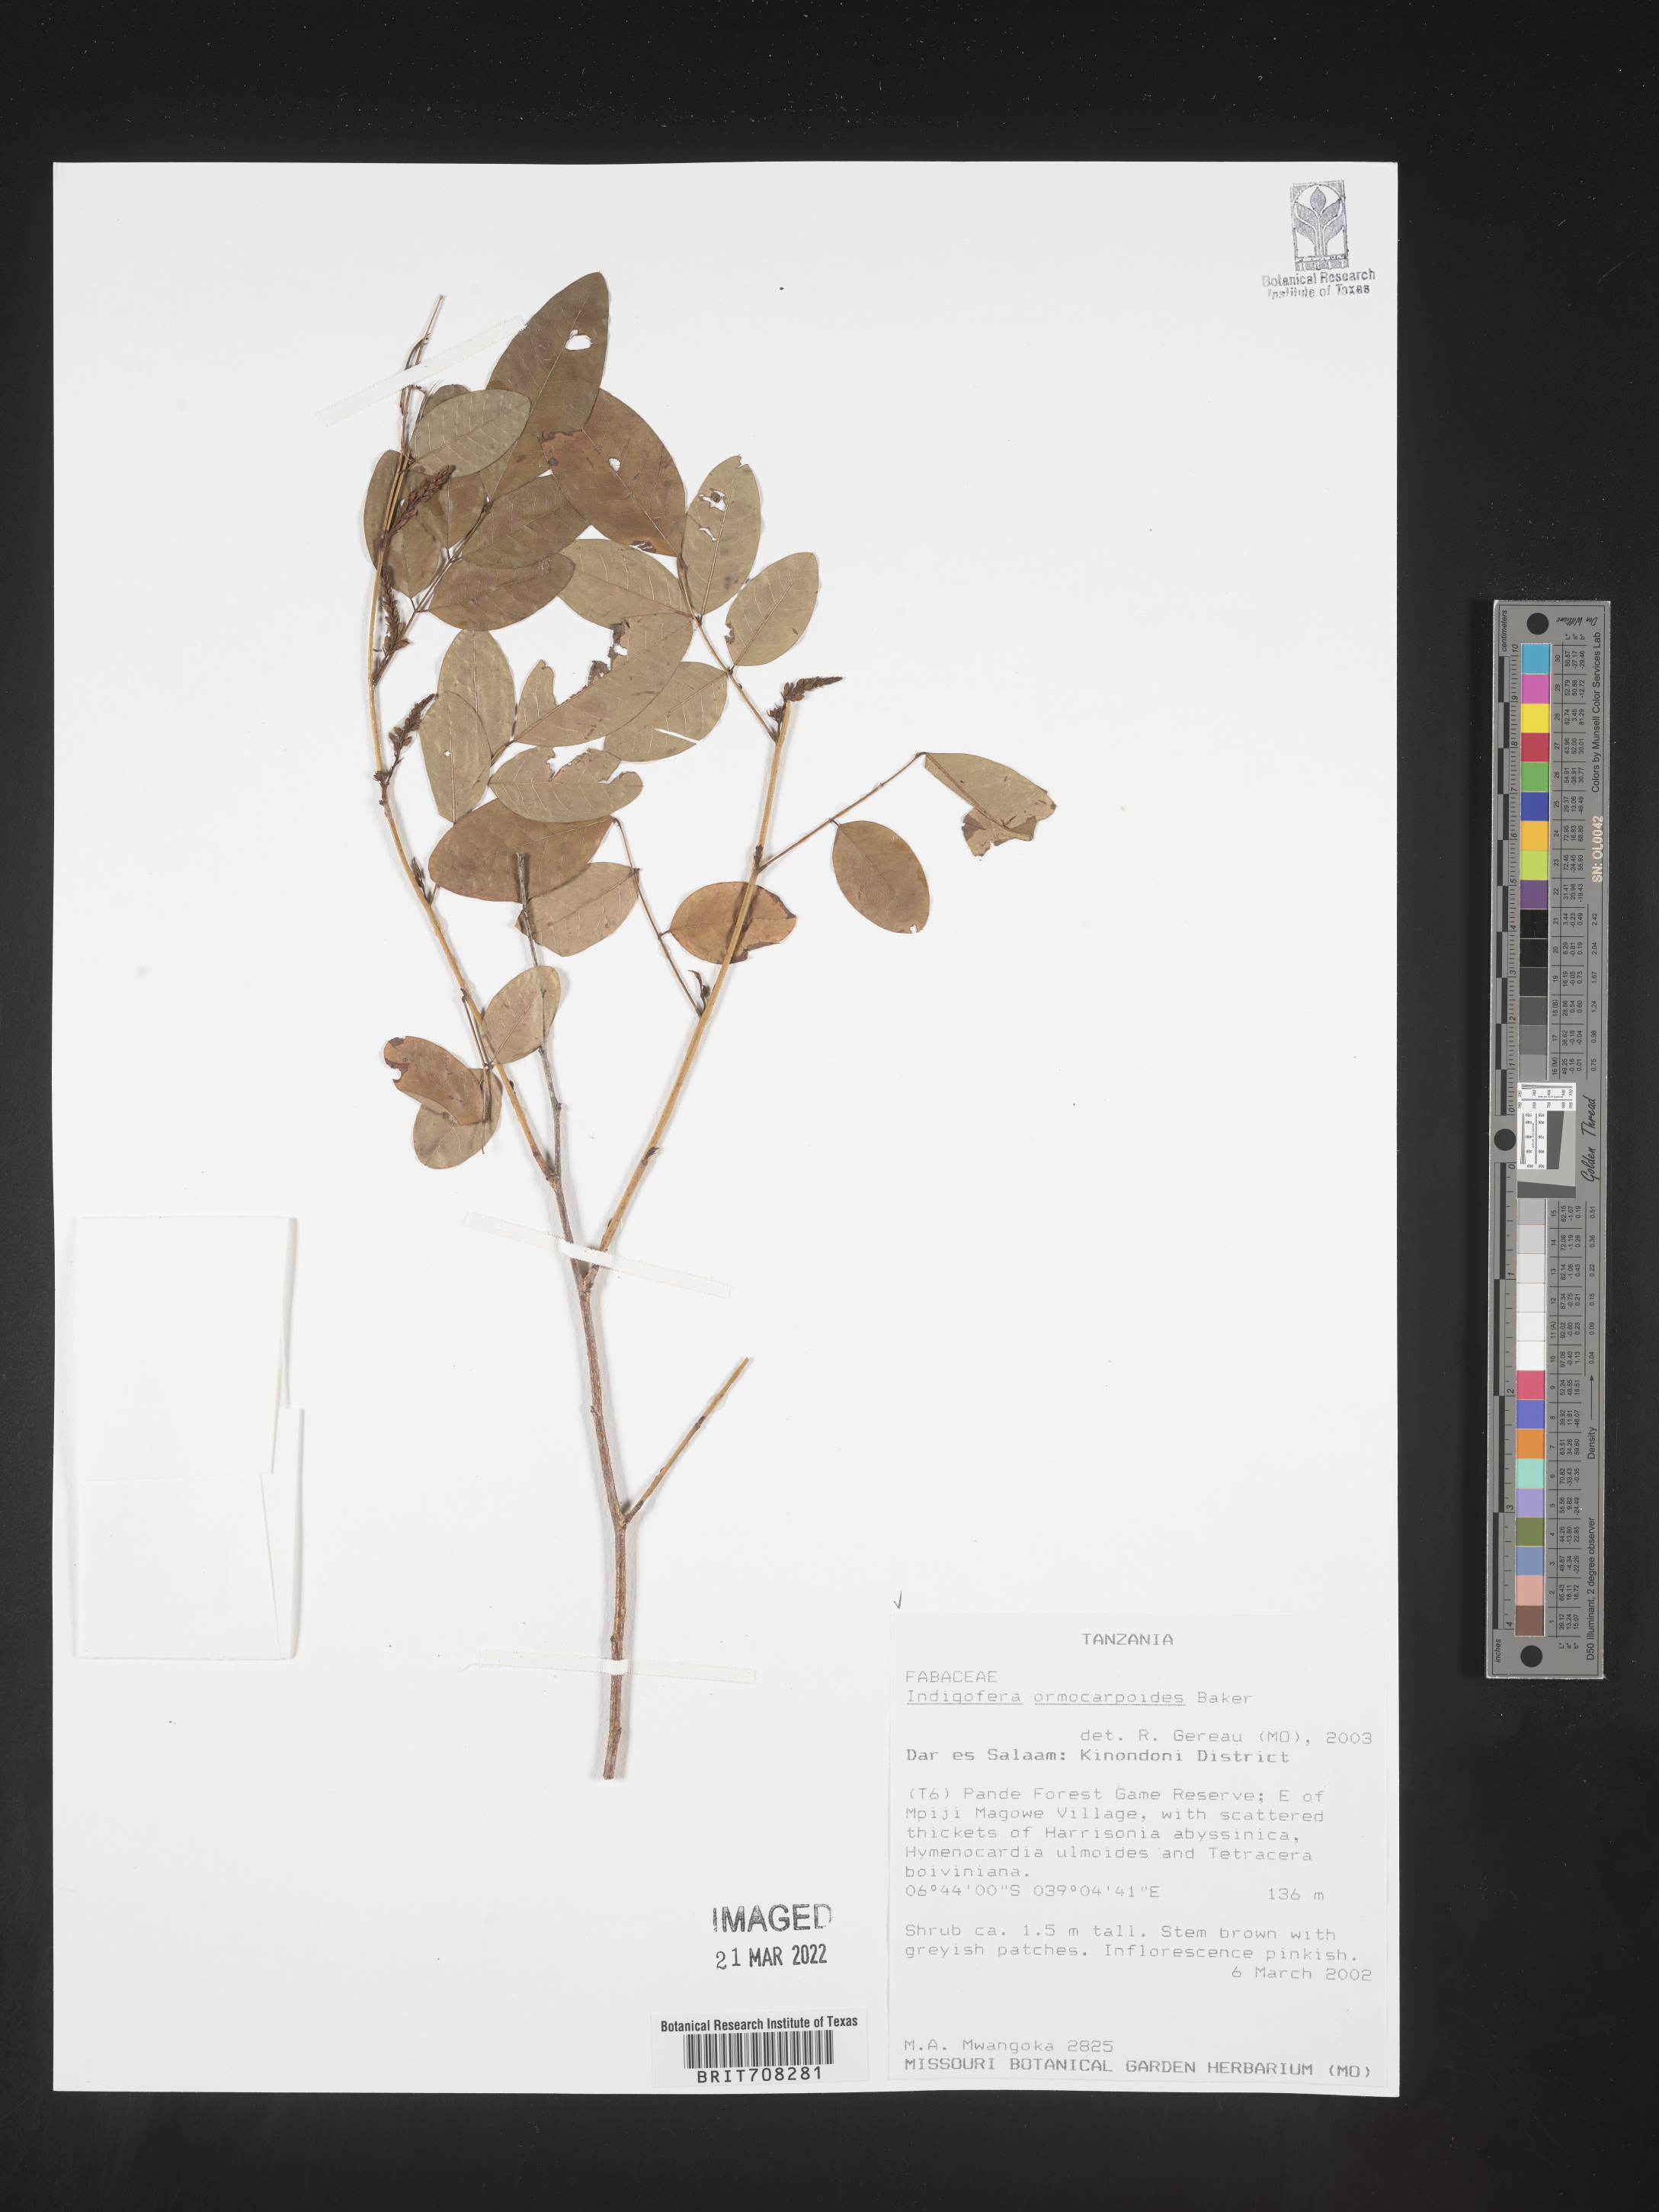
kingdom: Plantae
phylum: Tracheophyta
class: Magnoliopsida
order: Fabales
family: Fabaceae
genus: Indigofera
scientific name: Indigofera
